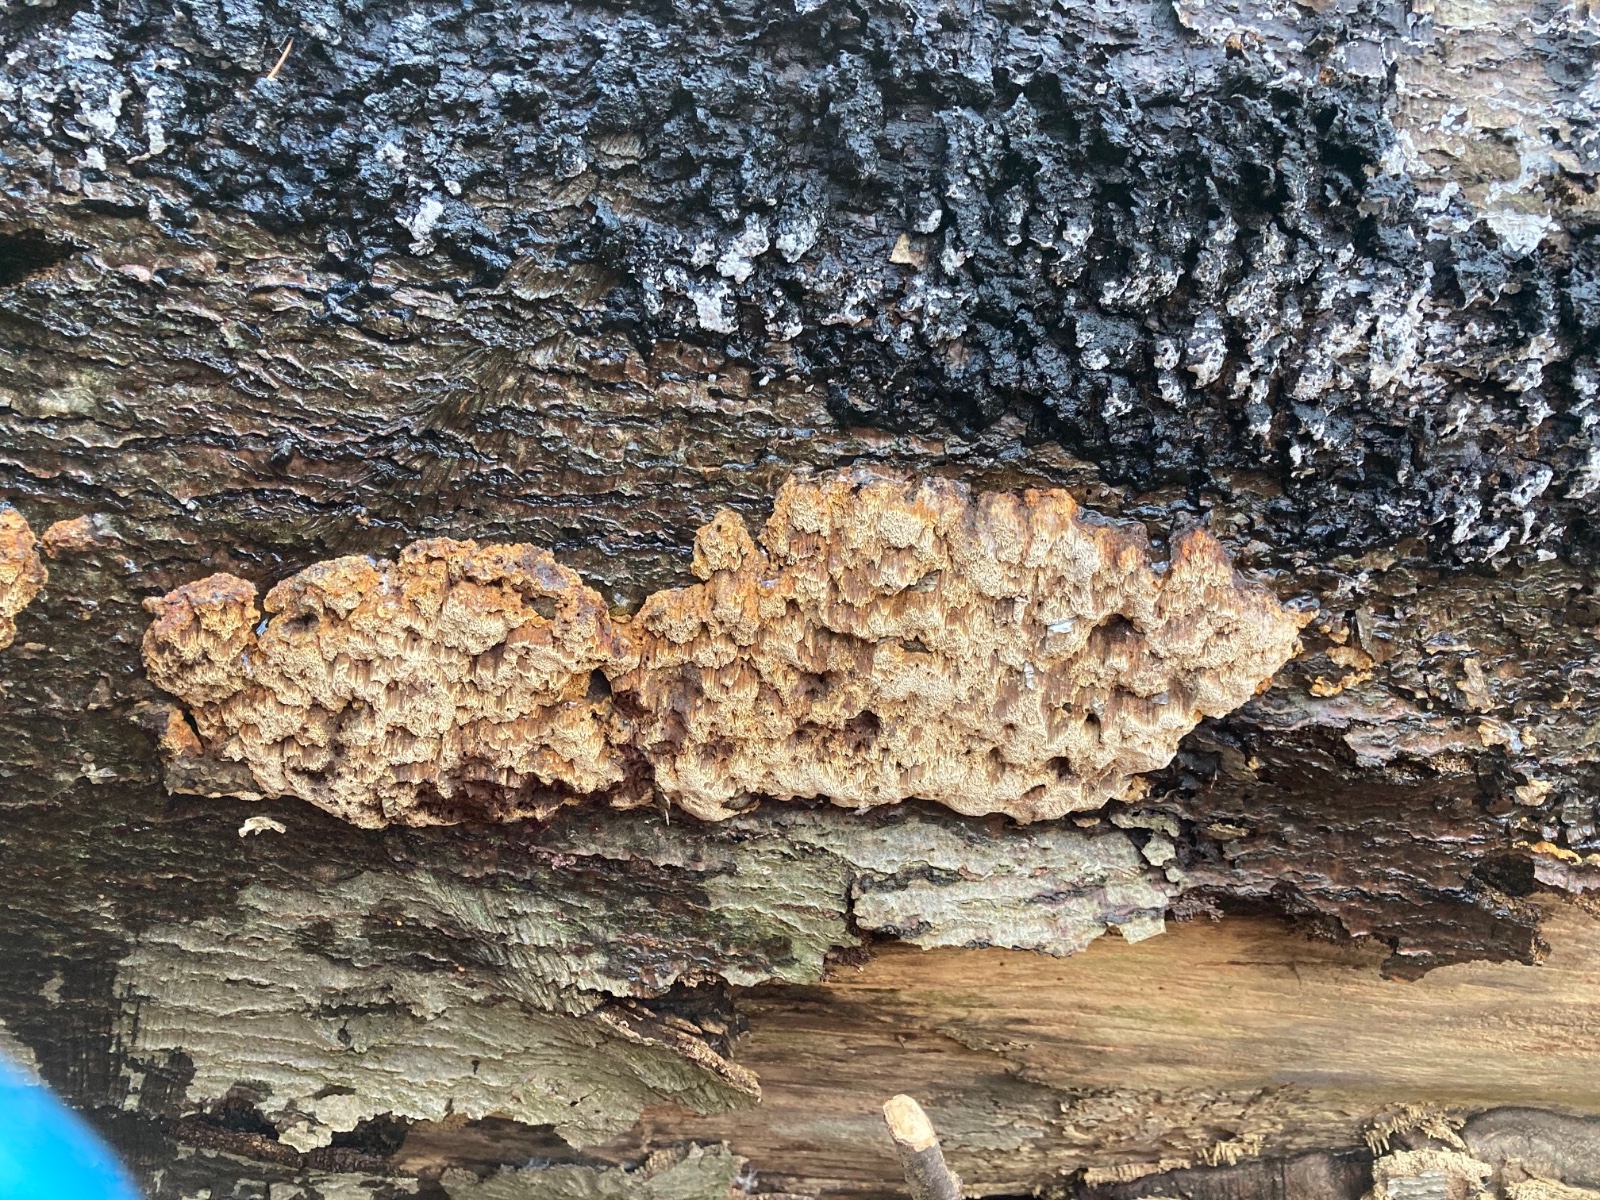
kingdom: Fungi
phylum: Basidiomycota
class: Agaricomycetes
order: Hymenochaetales
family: Hymenochaetaceae
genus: Mensularia
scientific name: Mensularia nodulosa
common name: bøge-spejlporesvamp
